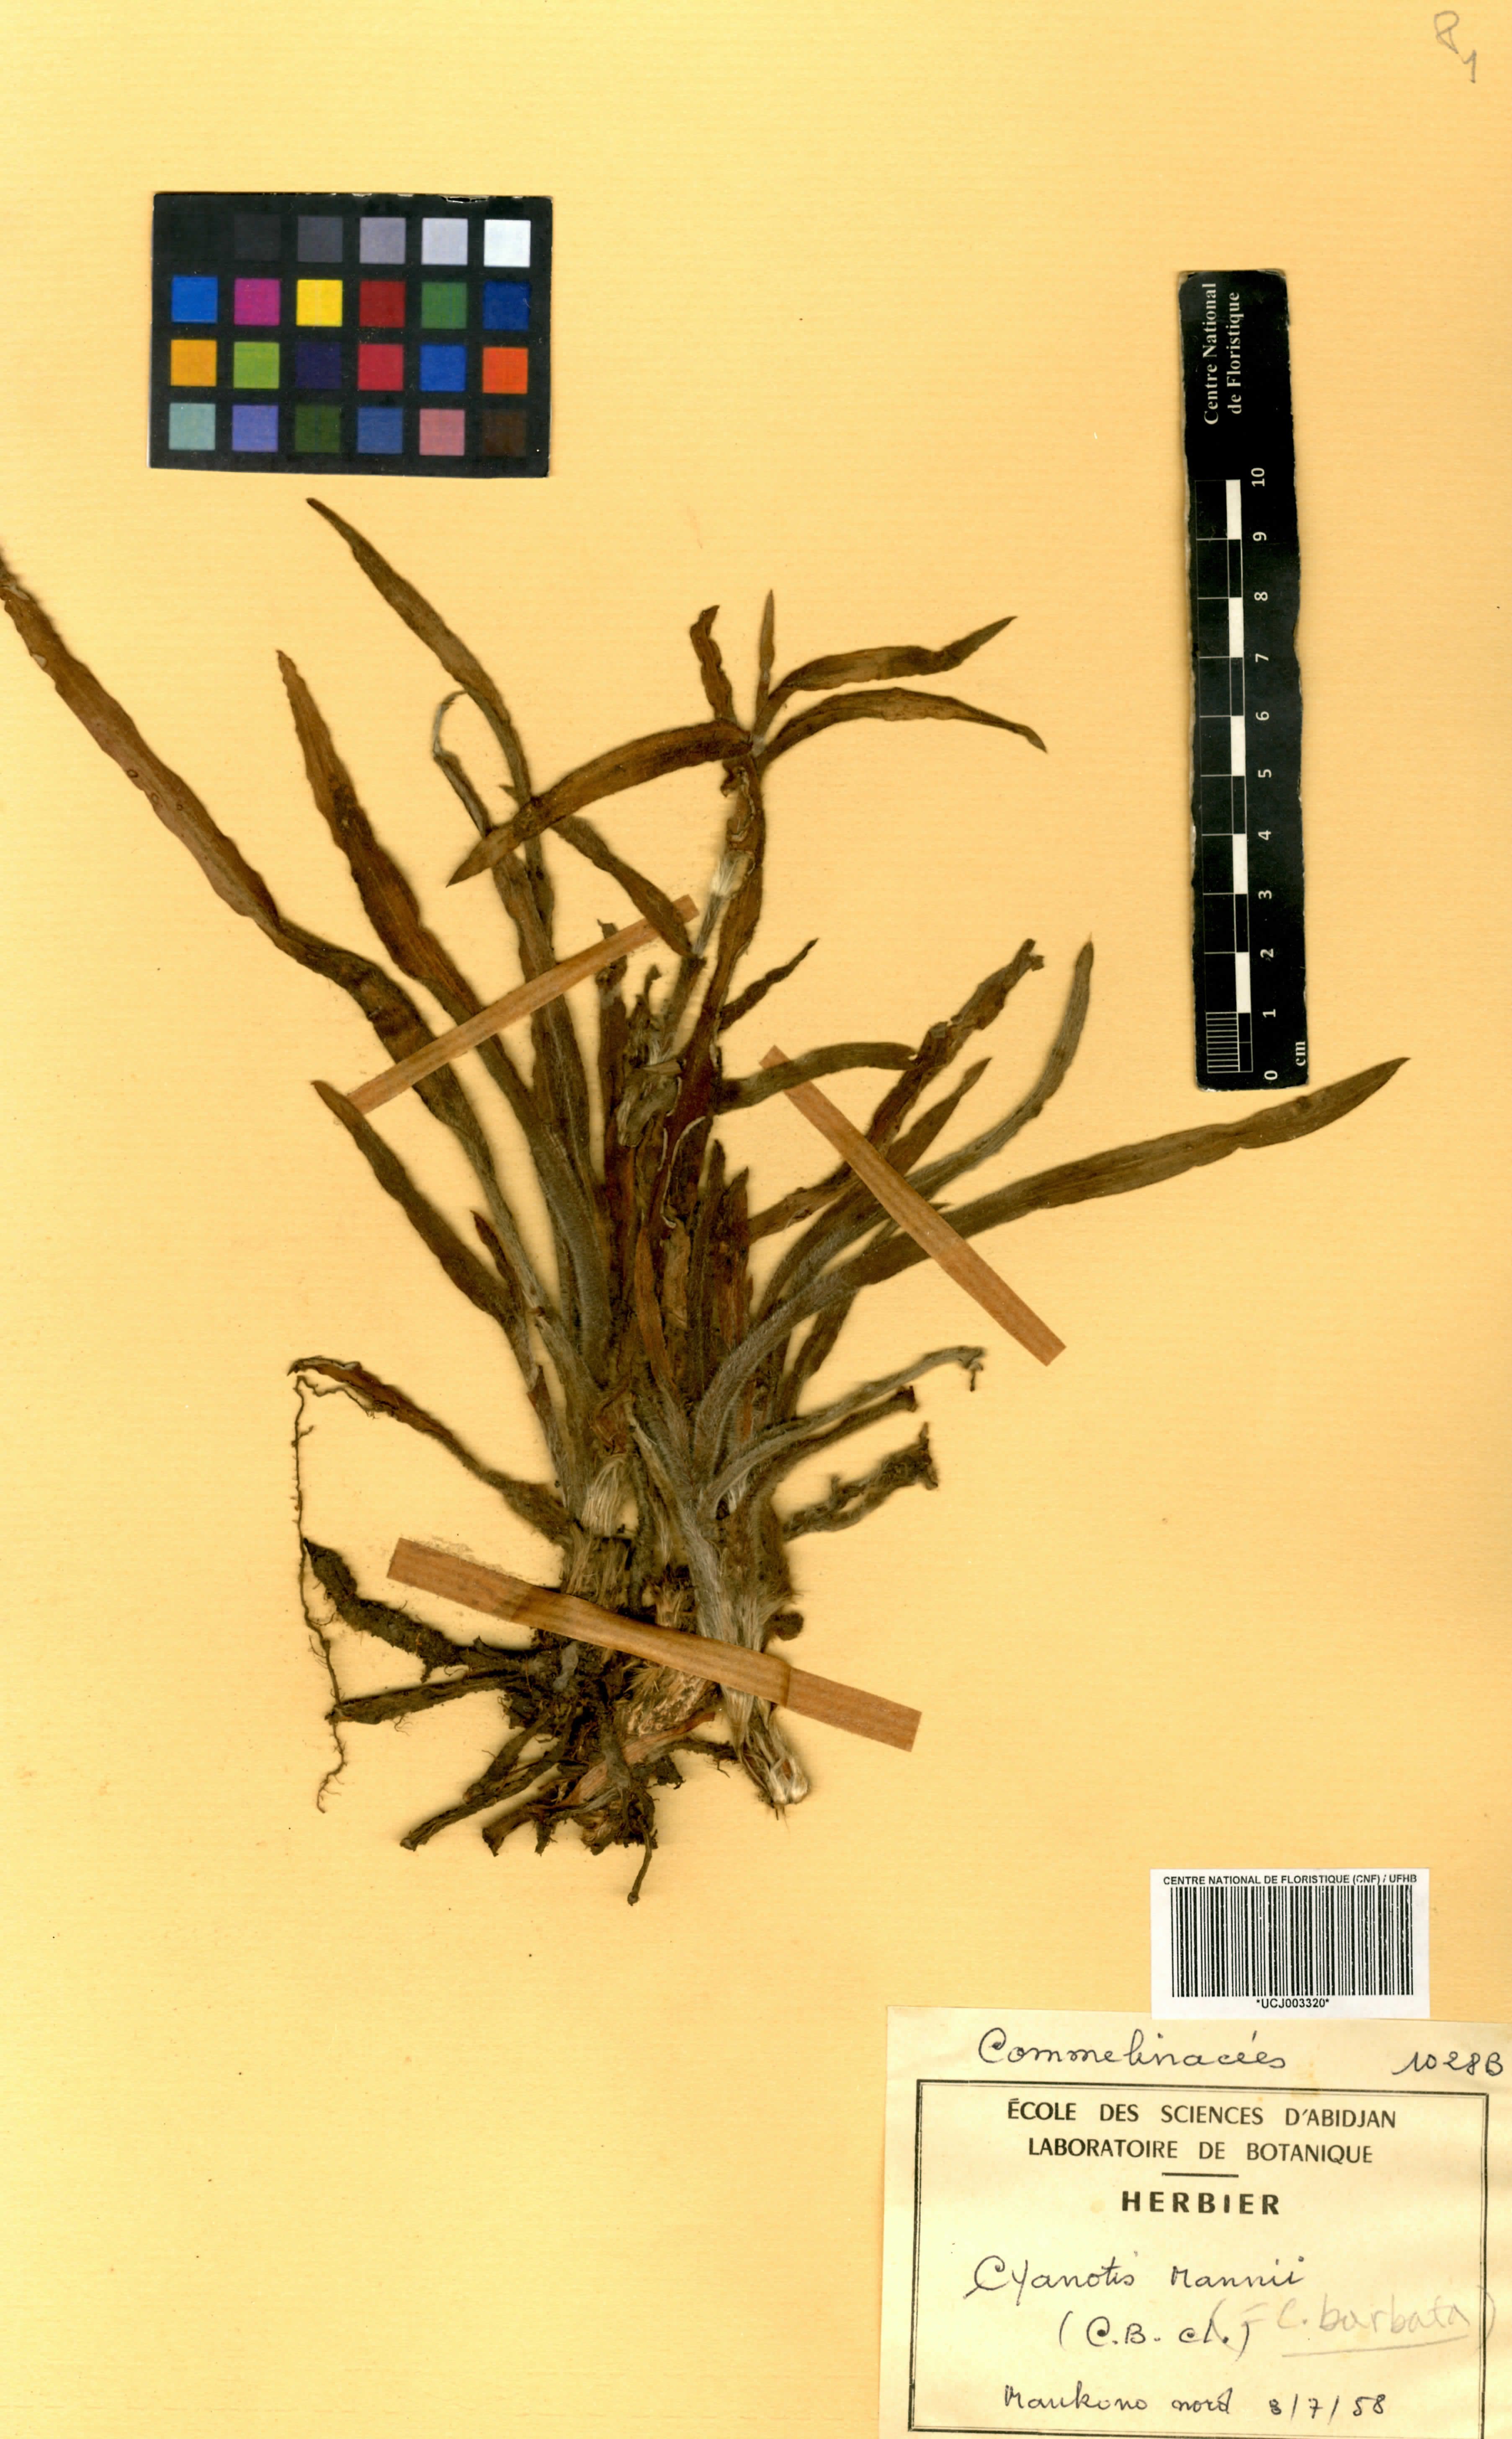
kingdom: Plantae
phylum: Tracheophyta
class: Liliopsida
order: Commelinales
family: Commelinaceae
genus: Cyanotis
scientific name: Cyanotis vaga
